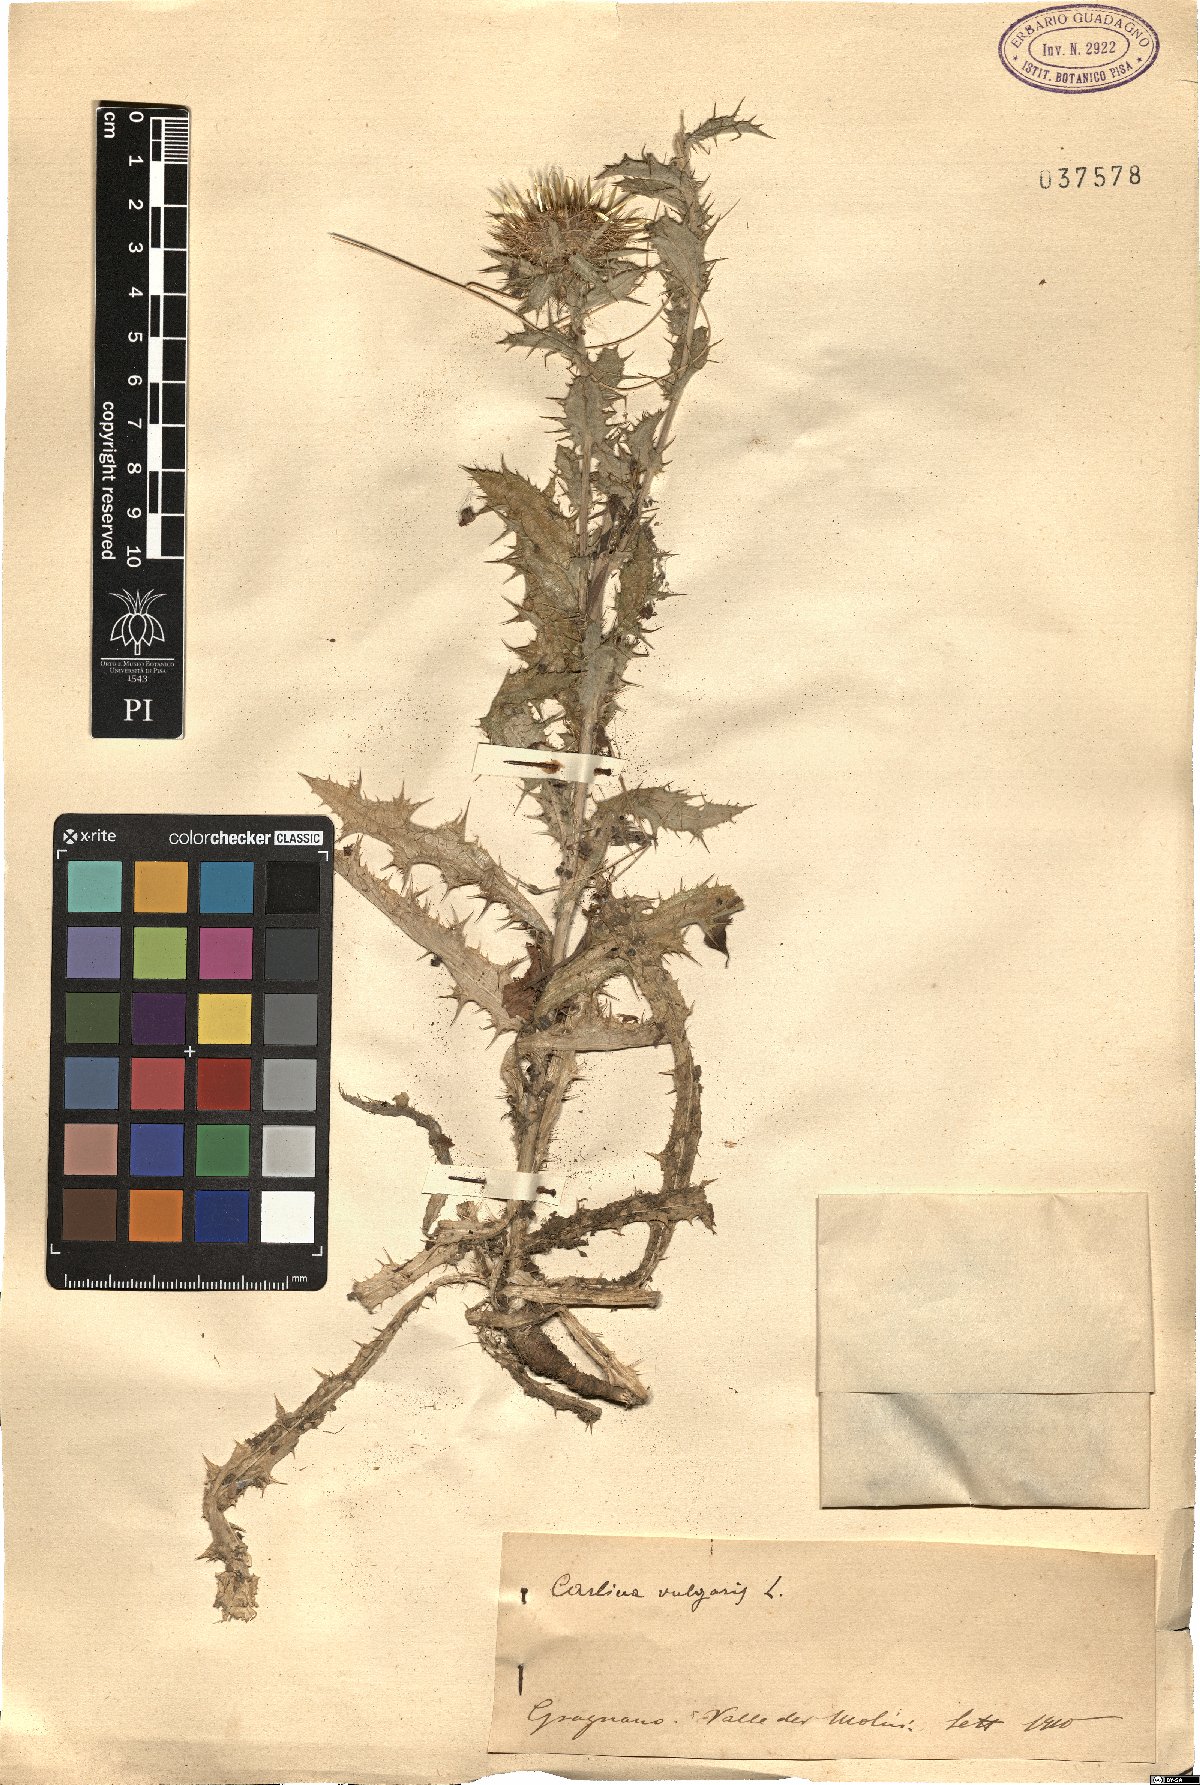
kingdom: Plantae
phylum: Tracheophyta
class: Magnoliopsida
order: Asterales
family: Asteraceae
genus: Carlina
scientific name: Carlina vulgaris
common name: Carline thistle
